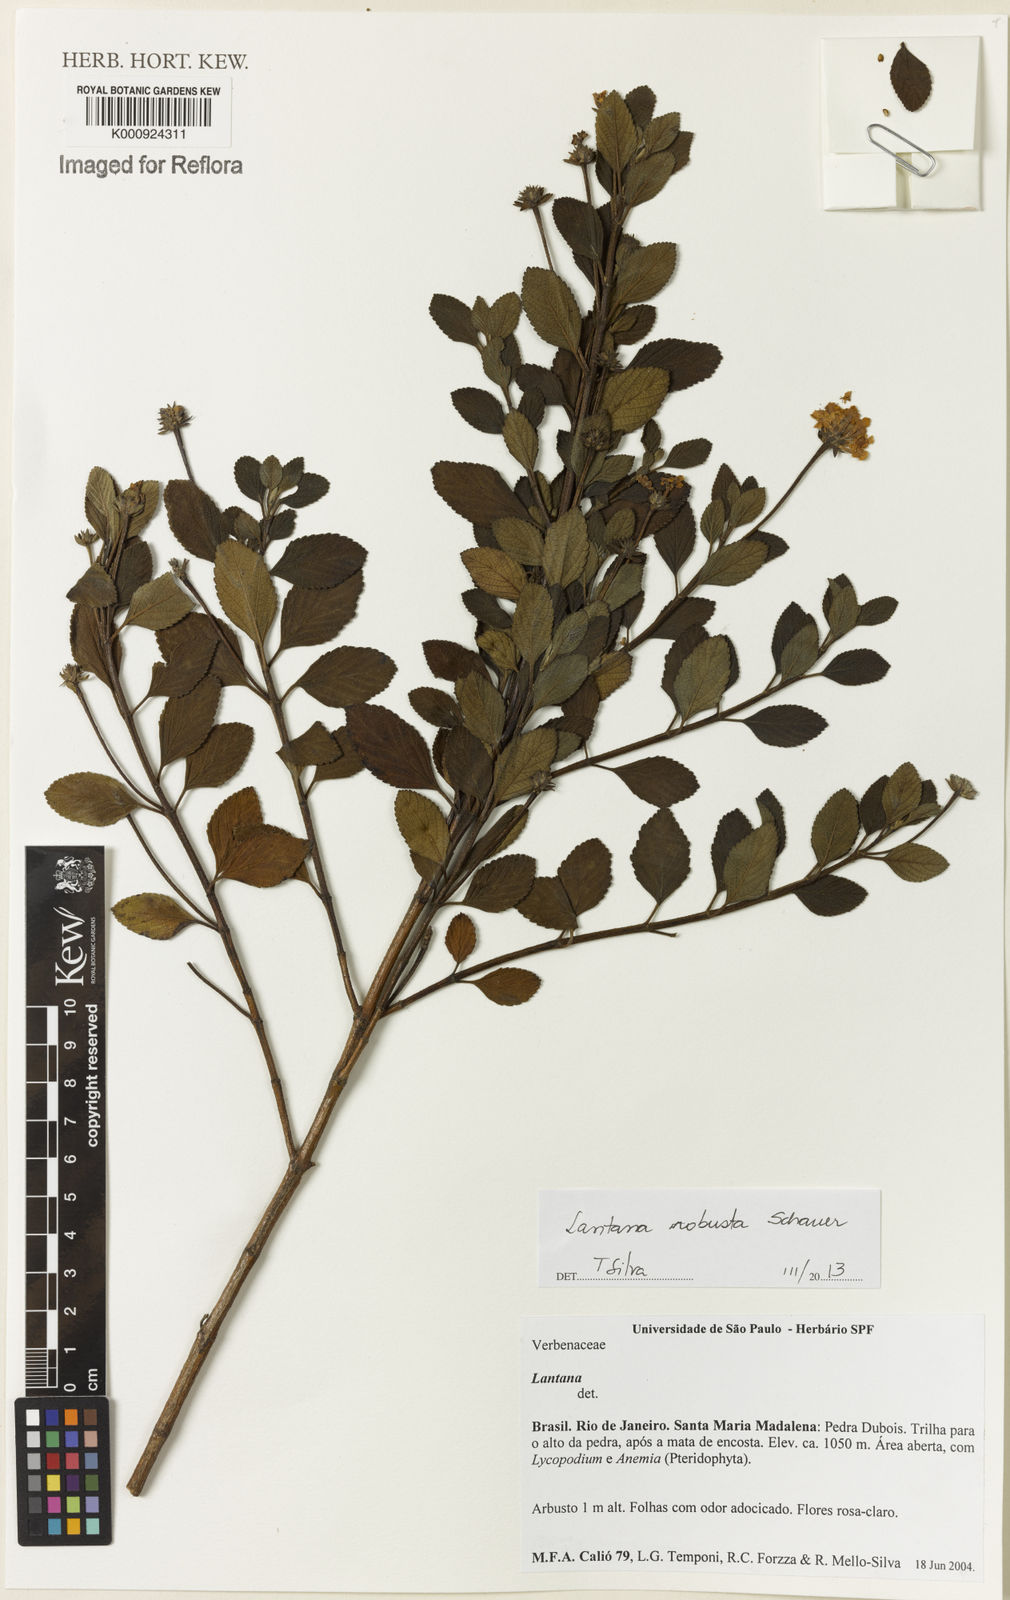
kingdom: Plantae
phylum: Tracheophyta
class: Magnoliopsida
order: Lamiales
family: Verbenaceae
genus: Lantana
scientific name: Lantana robusta
